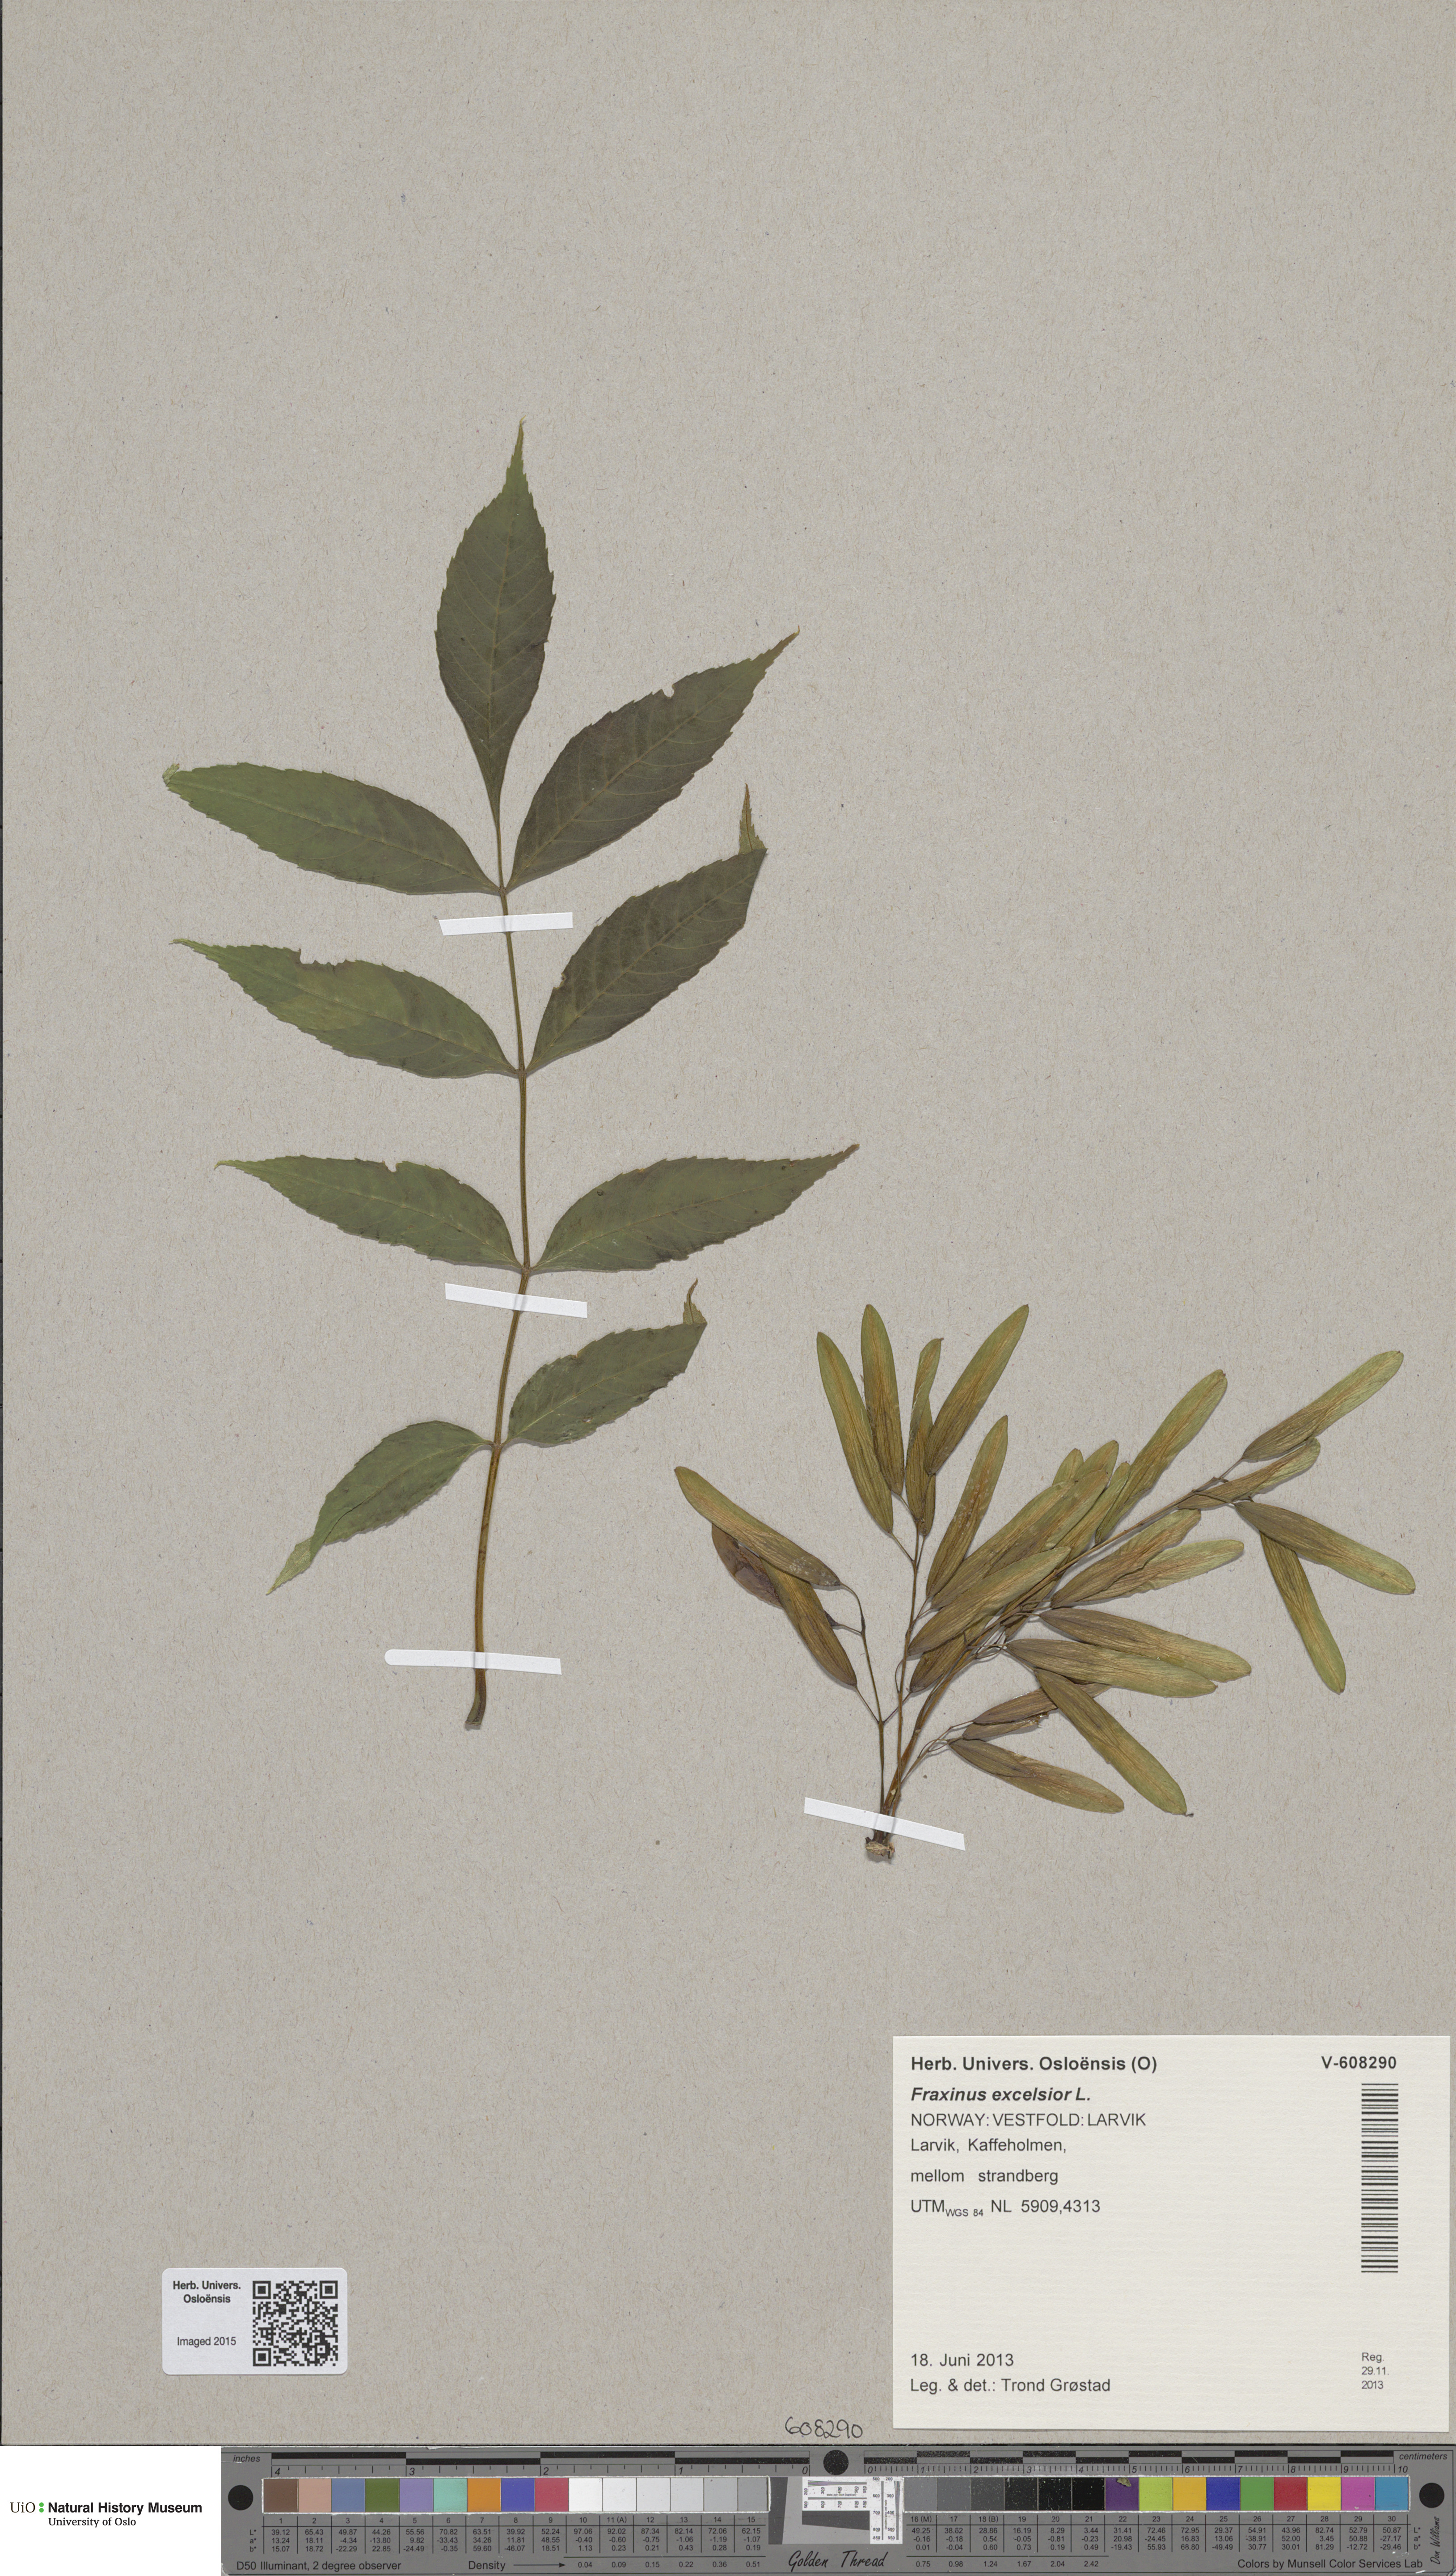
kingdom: Plantae
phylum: Tracheophyta
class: Magnoliopsida
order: Lamiales
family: Oleaceae
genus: Fraxinus
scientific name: Fraxinus excelsior
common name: European ash
